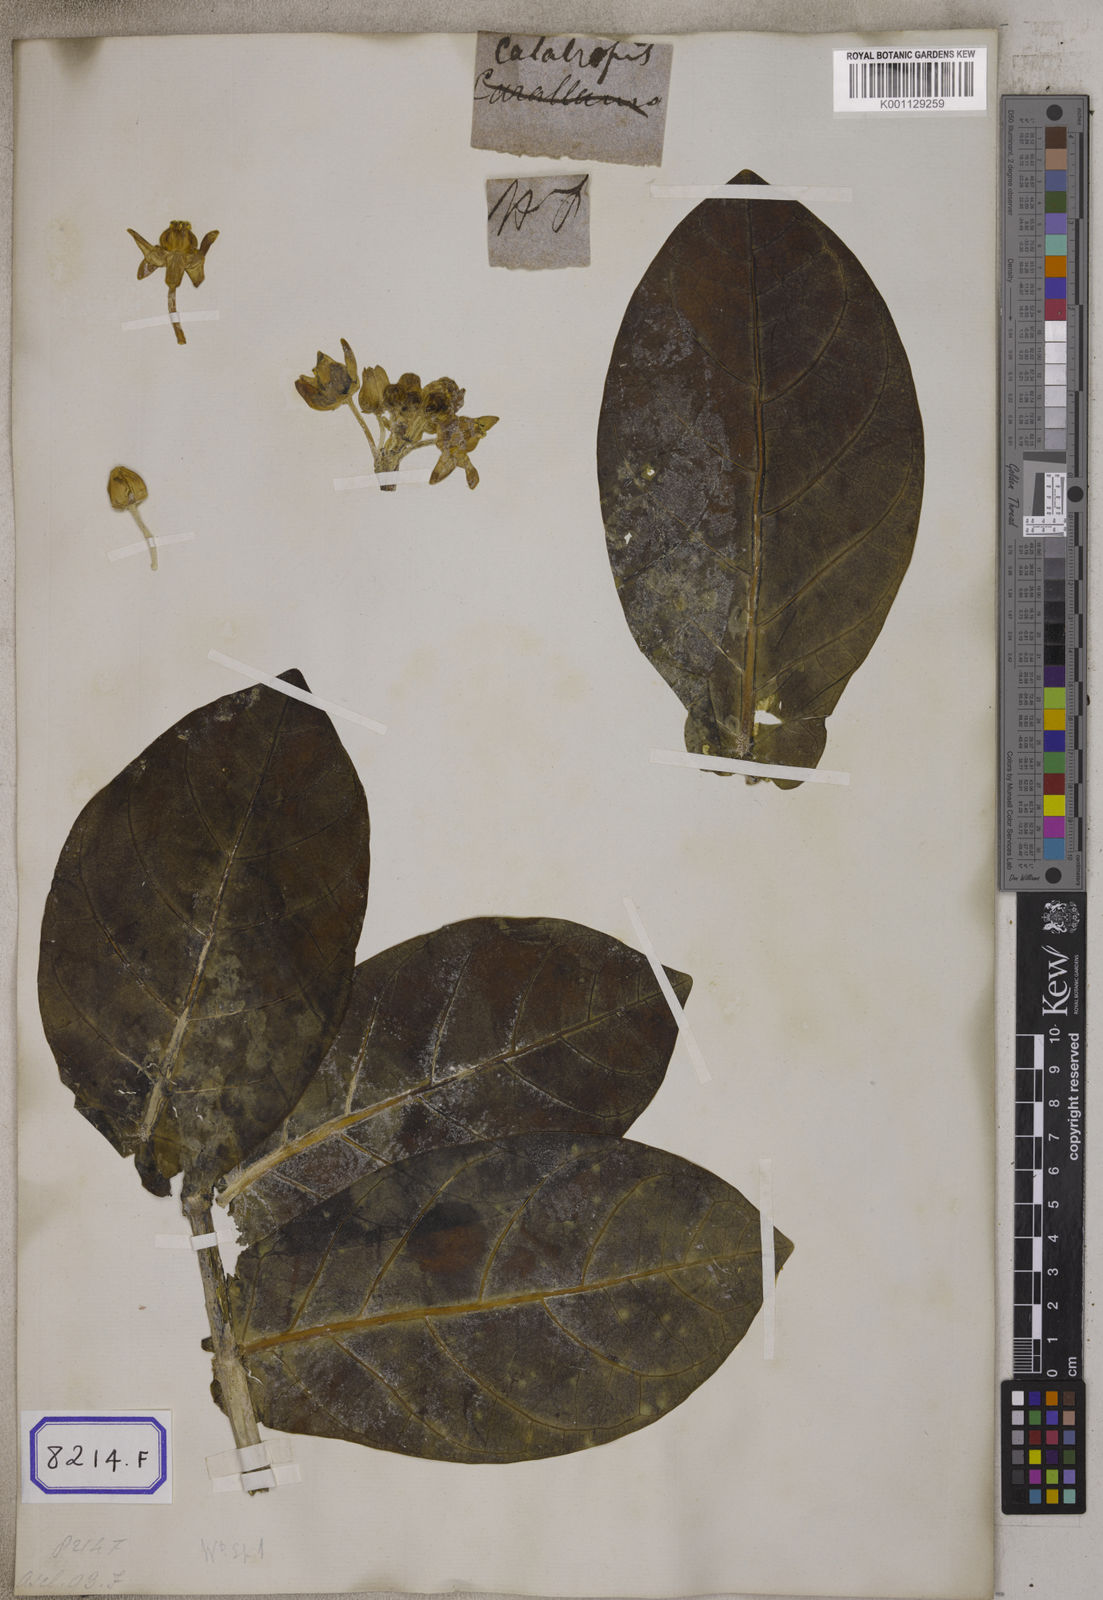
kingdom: Plantae
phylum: Tracheophyta
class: Magnoliopsida
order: Gentianales
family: Apocynaceae
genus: Calotropis
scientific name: Calotropis gigantea
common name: Crown flower
